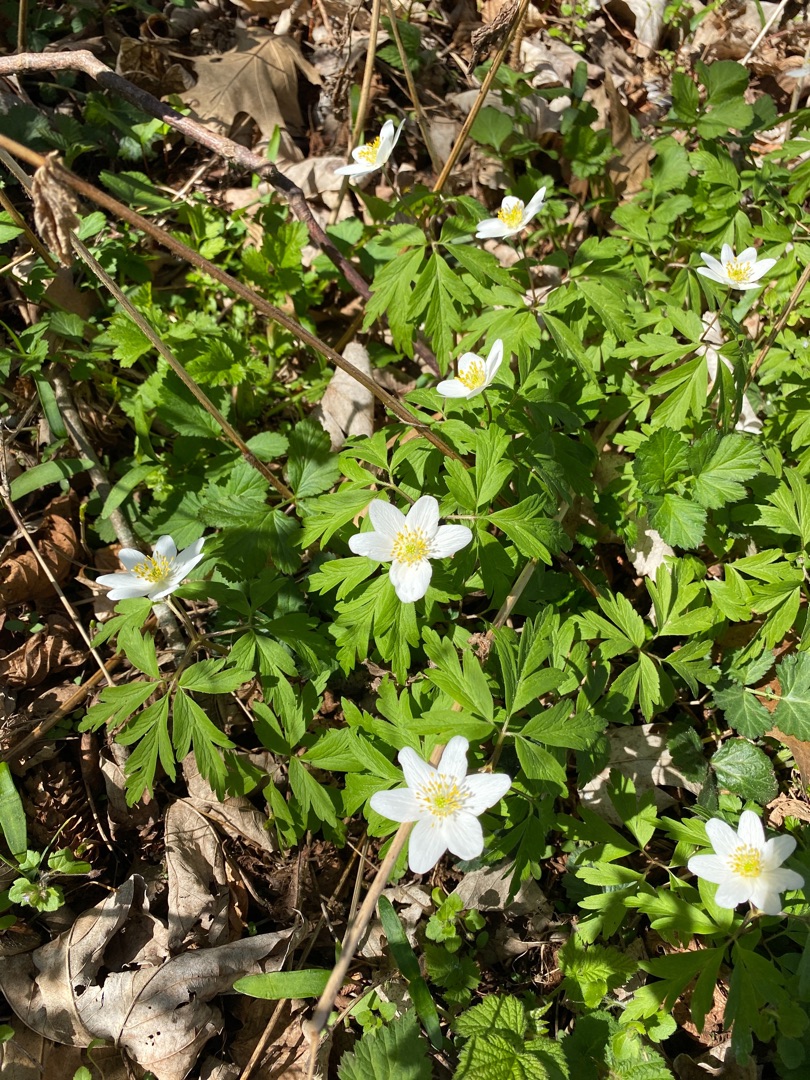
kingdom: Plantae
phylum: Tracheophyta
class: Magnoliopsida
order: Ranunculales
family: Ranunculaceae
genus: Anemone
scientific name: Anemone nemorosa
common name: Hvid anemone
